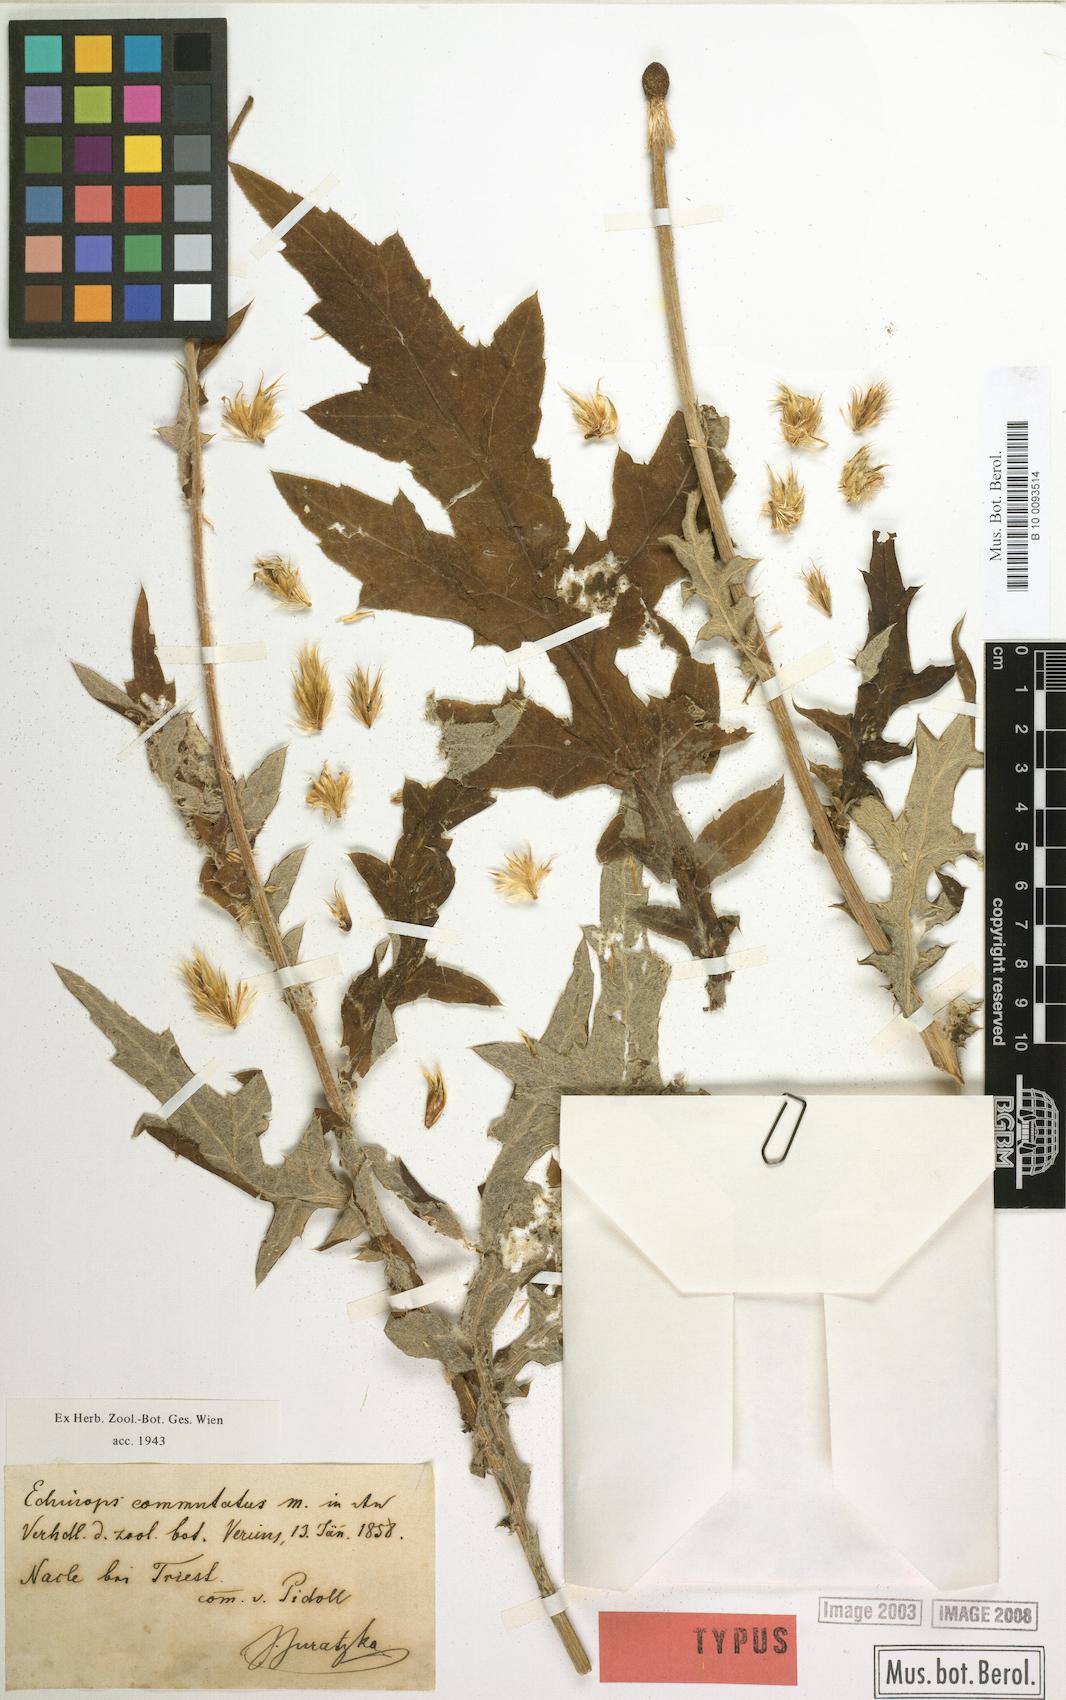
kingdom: Plantae
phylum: Tracheophyta
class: Magnoliopsida
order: Asterales
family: Asteraceae
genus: Echinops
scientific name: Echinops exaltatus
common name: Globe-thistle
